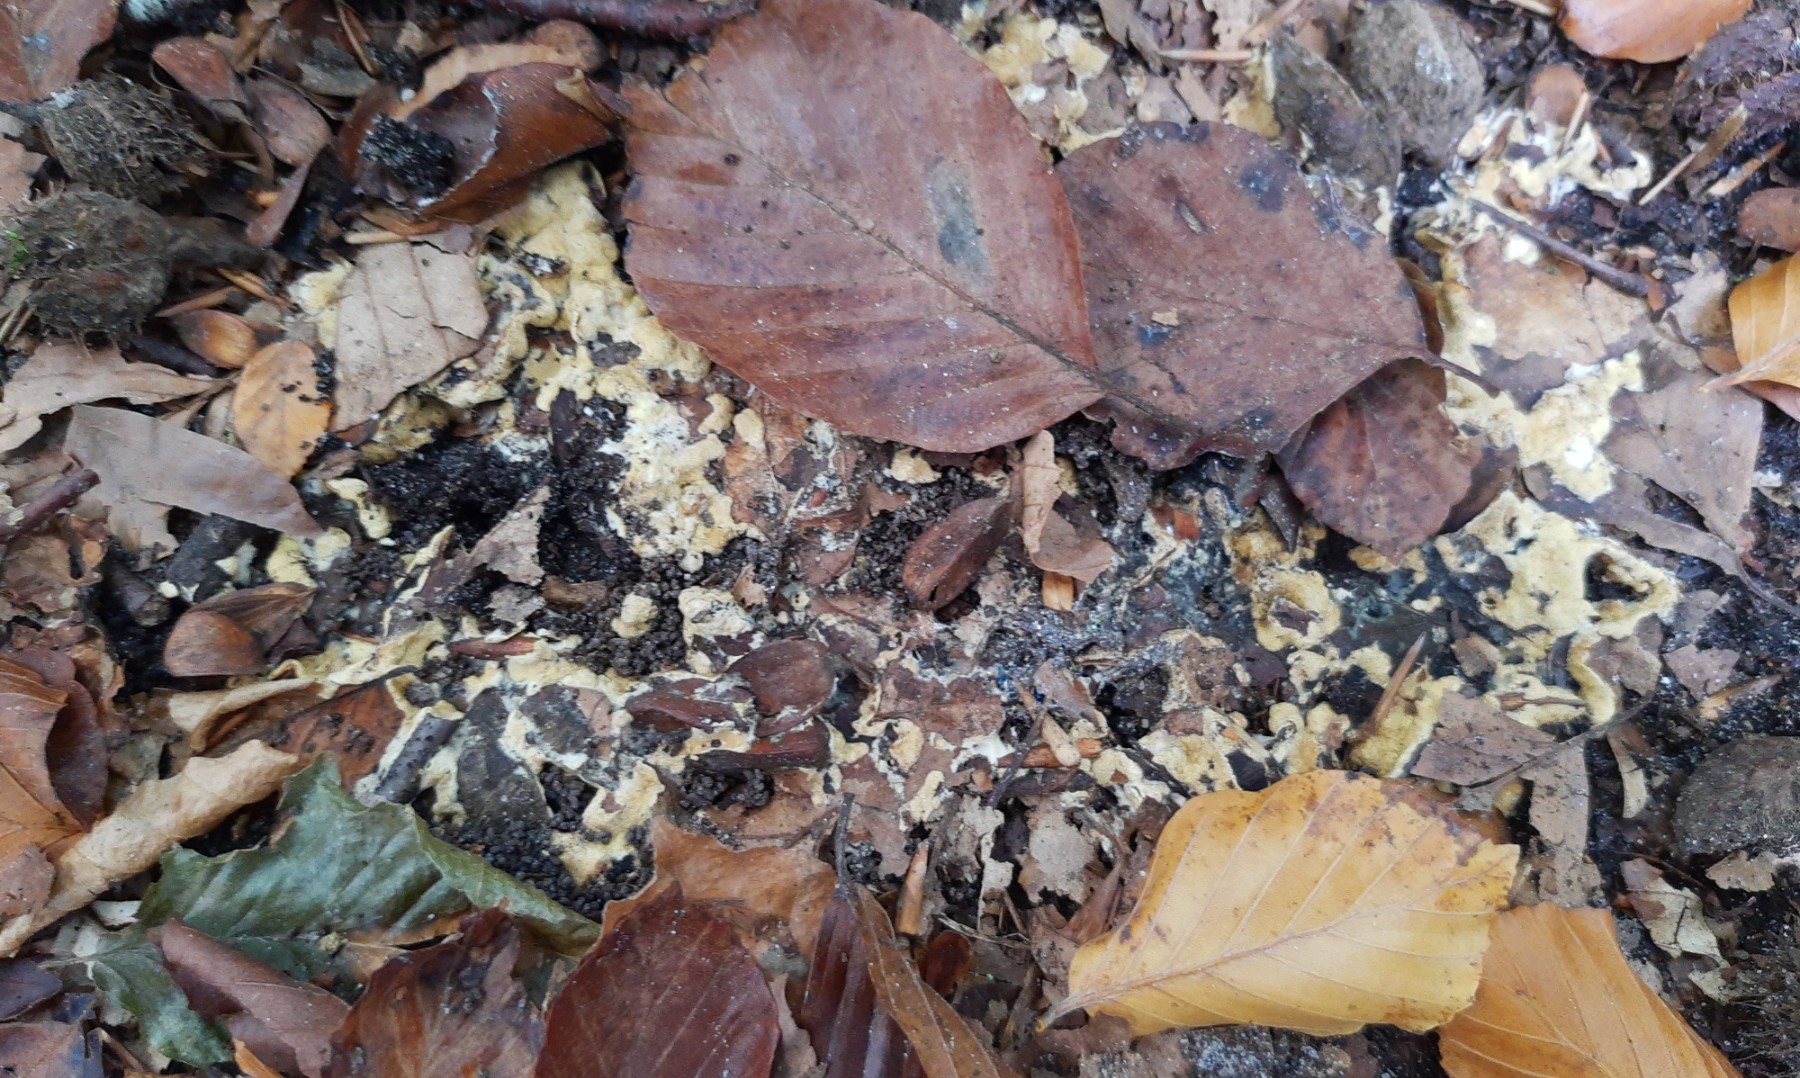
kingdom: Fungi
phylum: Ascomycota
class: Sordariomycetes
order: Hypocreales
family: Hypocreaceae
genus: Trichoderma
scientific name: Trichoderma citrinum
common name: udbredt kødkerne
